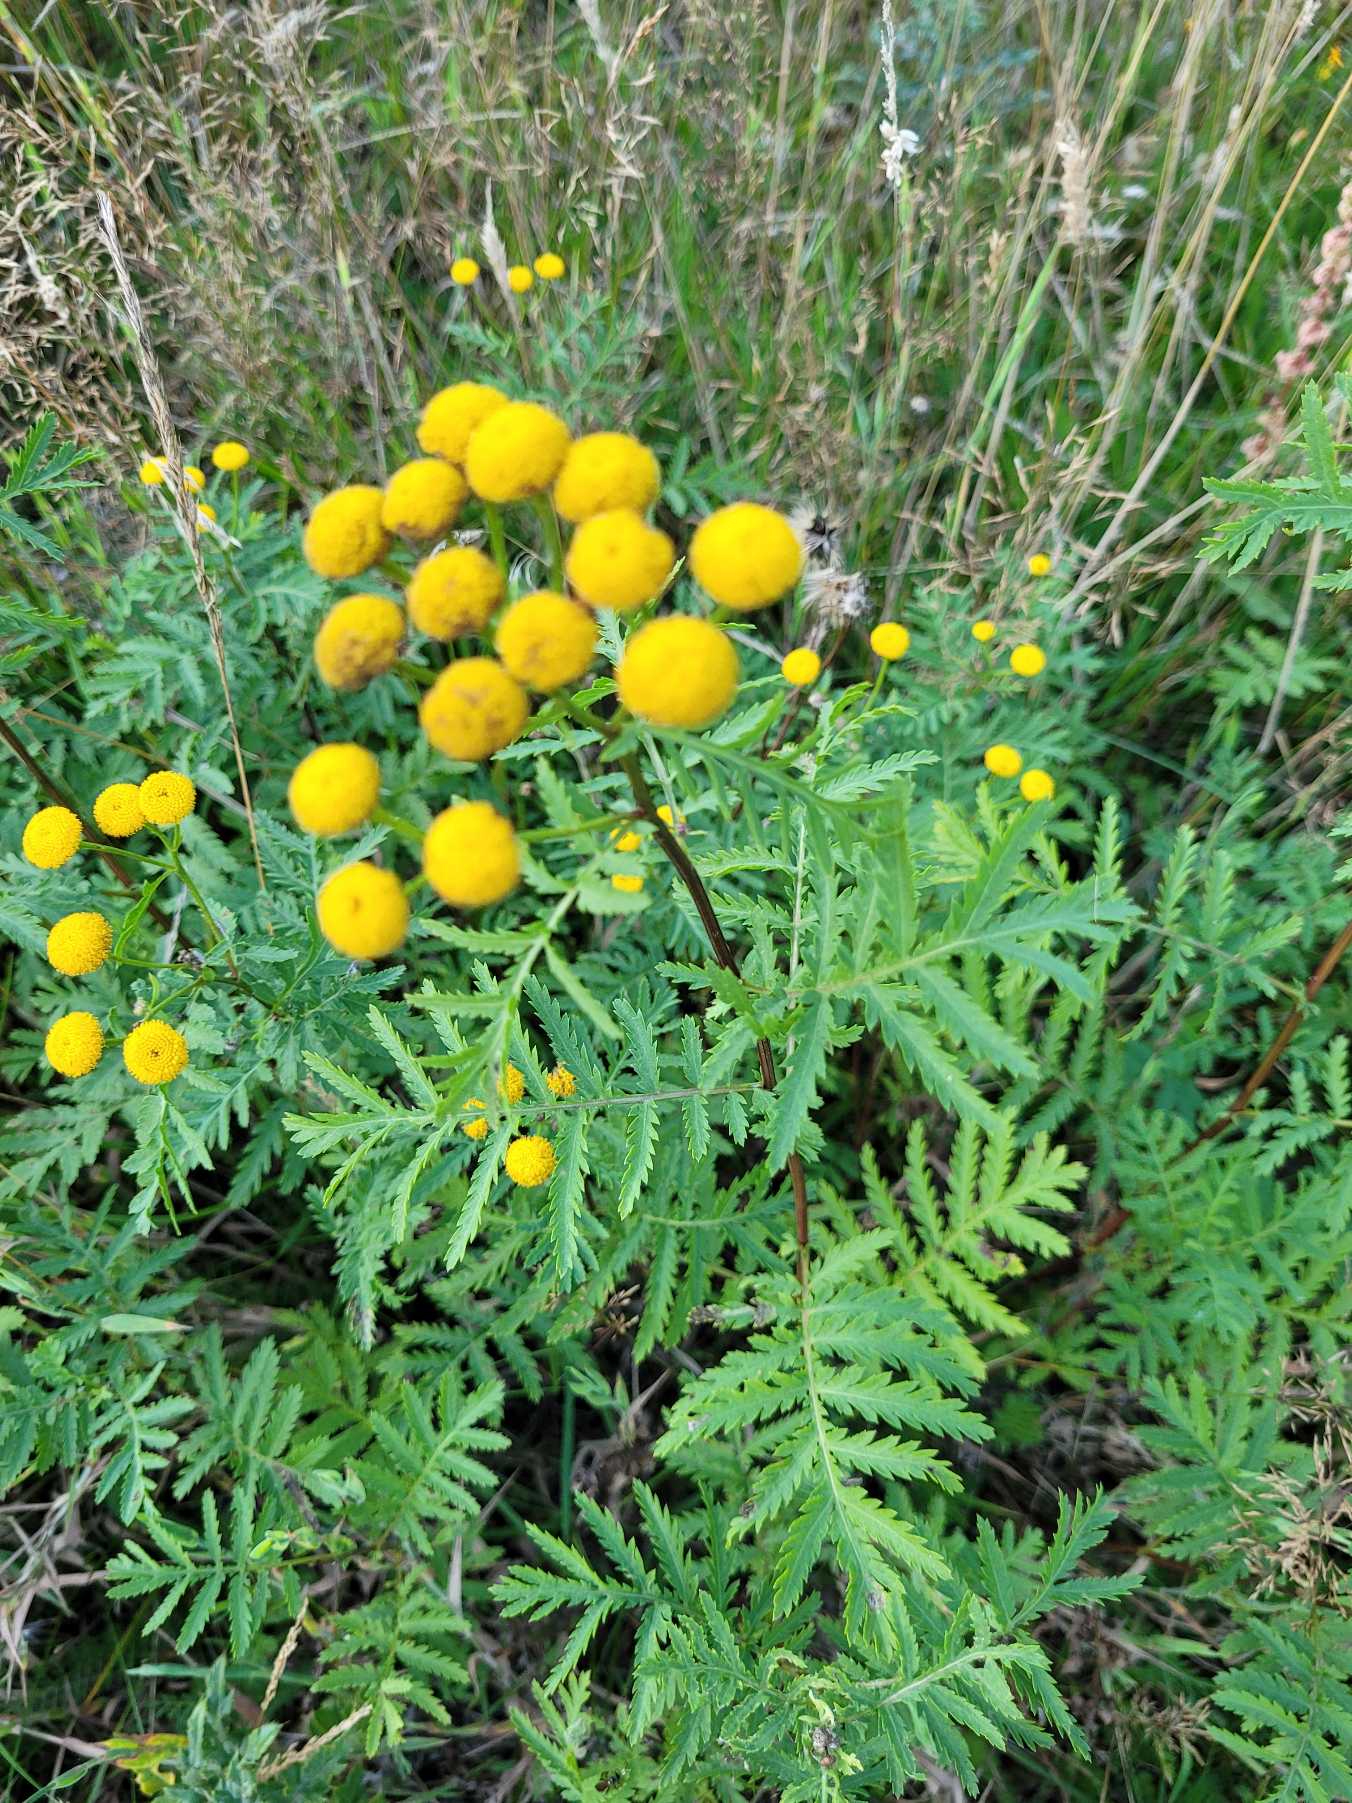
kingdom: Plantae
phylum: Tracheophyta
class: Magnoliopsida
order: Asterales
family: Asteraceae
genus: Tanacetum
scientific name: Tanacetum vulgare
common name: Rejnfan
